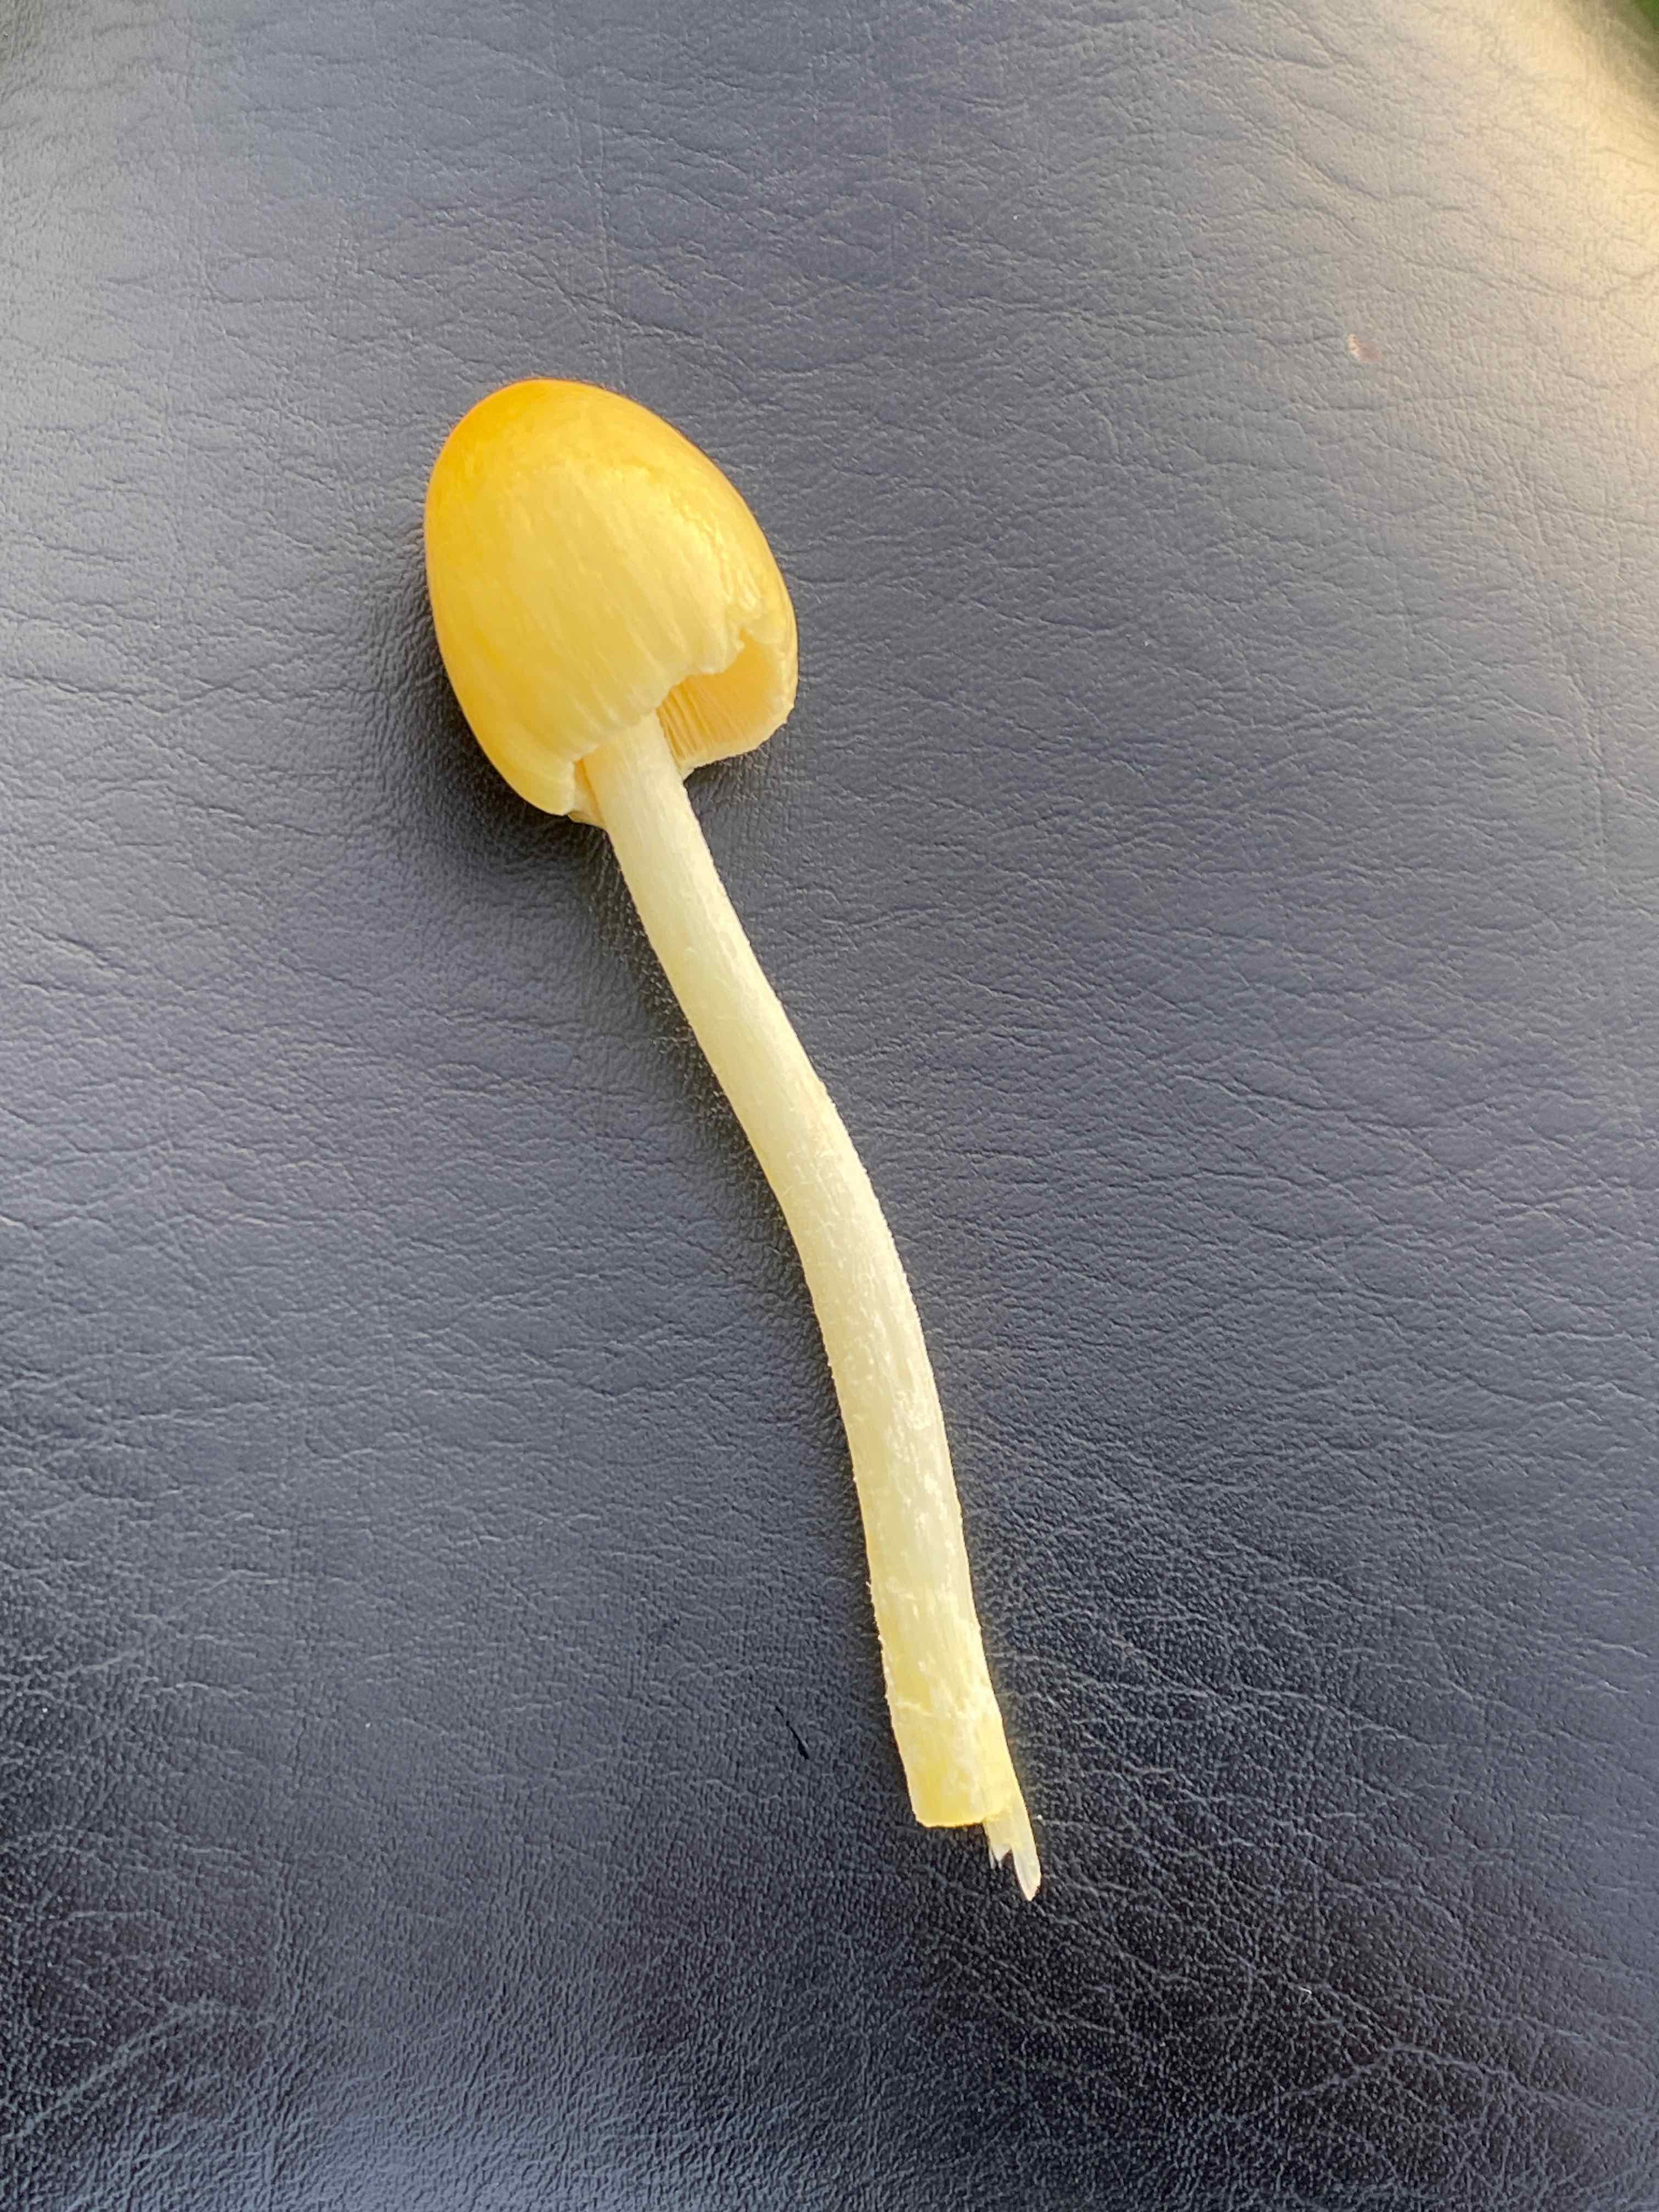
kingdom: Fungi
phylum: Basidiomycota
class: Agaricomycetes
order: Agaricales
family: Bolbitiaceae
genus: Bolbitius
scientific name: Bolbitius titubans
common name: almindelig gulhat
